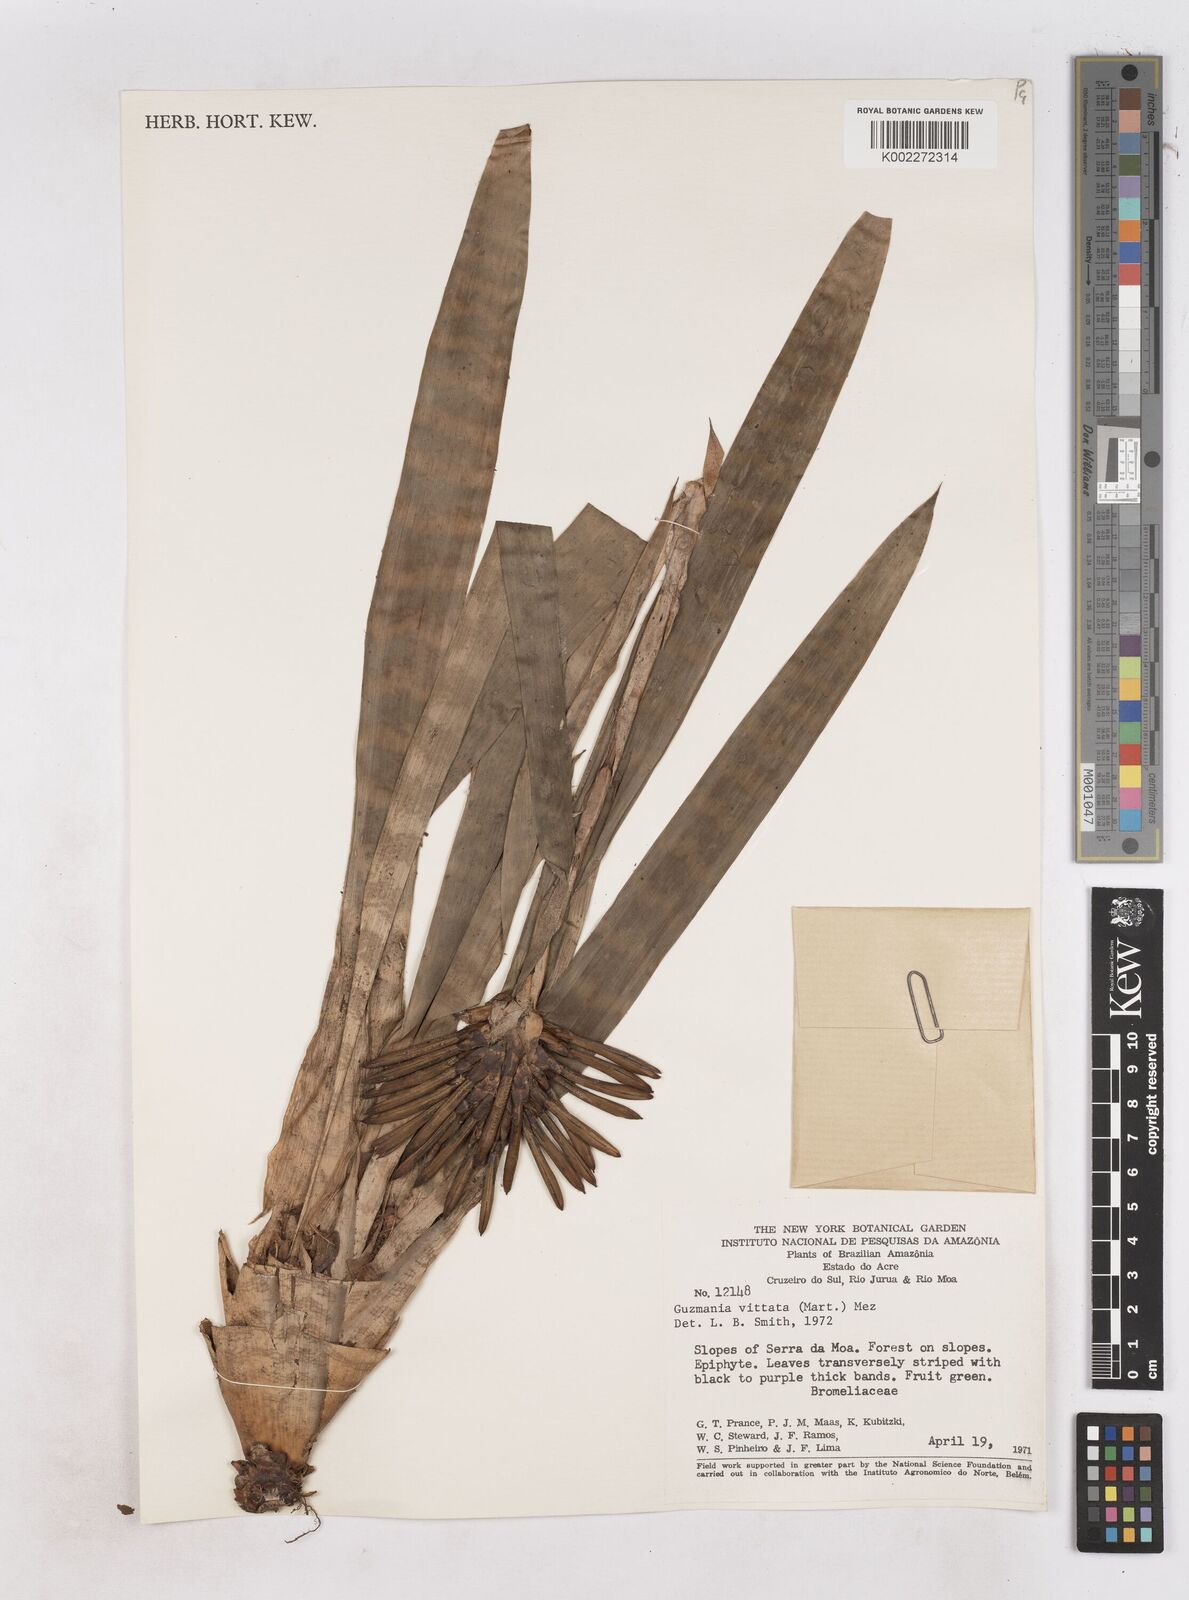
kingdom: Plantae
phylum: Tracheophyta
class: Liliopsida
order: Poales
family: Bromeliaceae
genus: Guzmania
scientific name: Guzmania vittata
